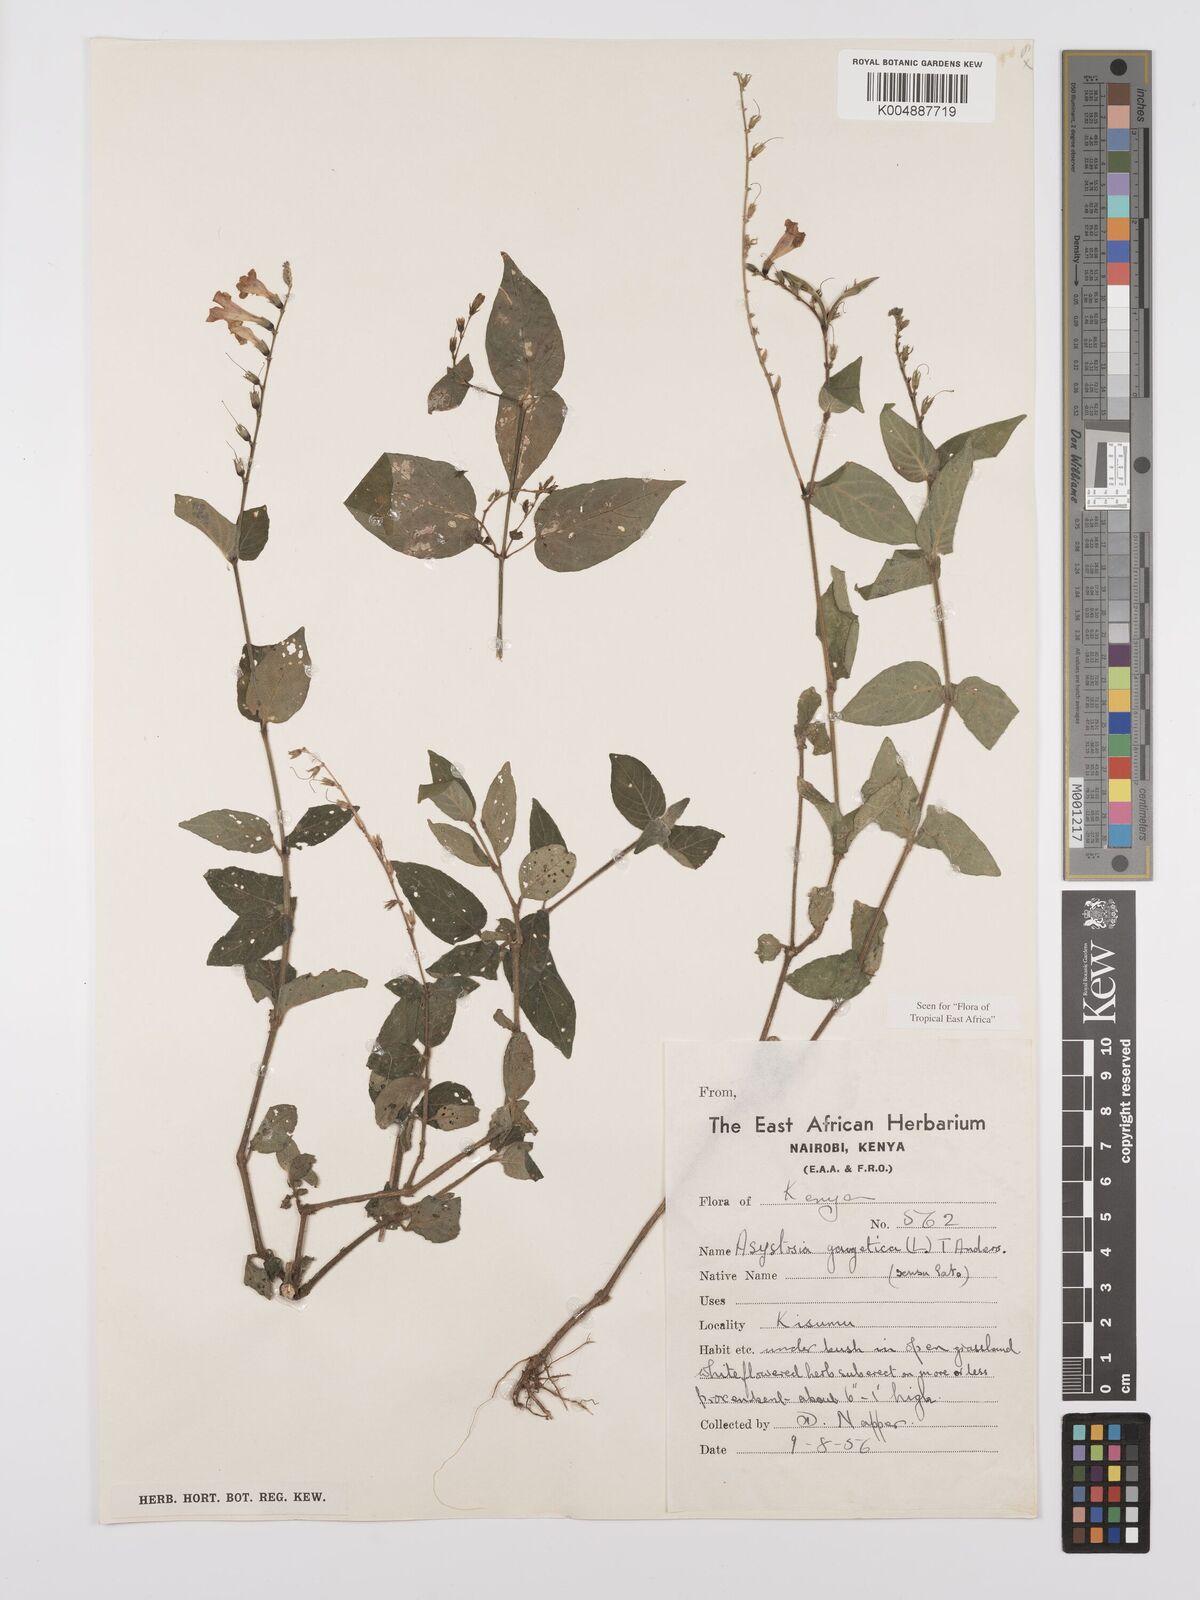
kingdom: Plantae
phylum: Tracheophyta
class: Magnoliopsida
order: Lamiales
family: Acanthaceae
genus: Asystasia
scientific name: Asystasia gangetica
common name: Chinese violet
